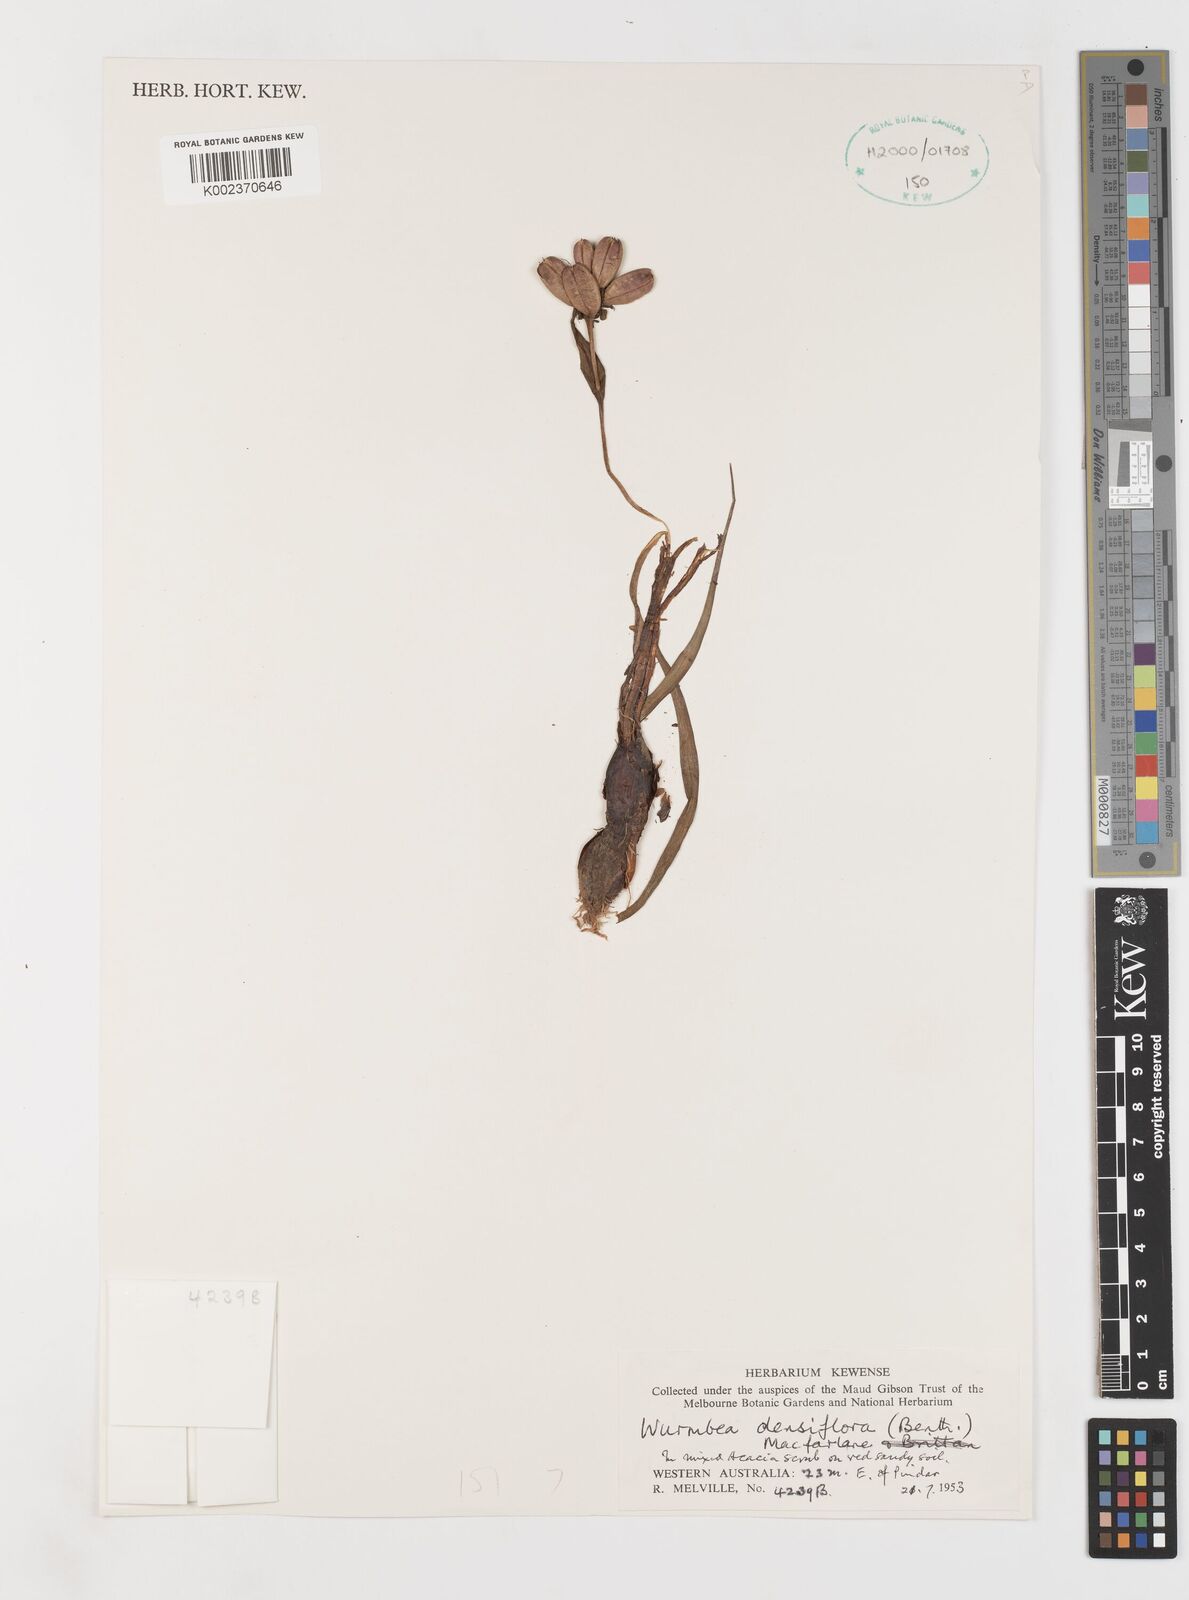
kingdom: Plantae
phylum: Tracheophyta
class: Liliopsida
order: Liliales
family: Colchicaceae
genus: Wurmbea
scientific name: Wurmbea densiflora
